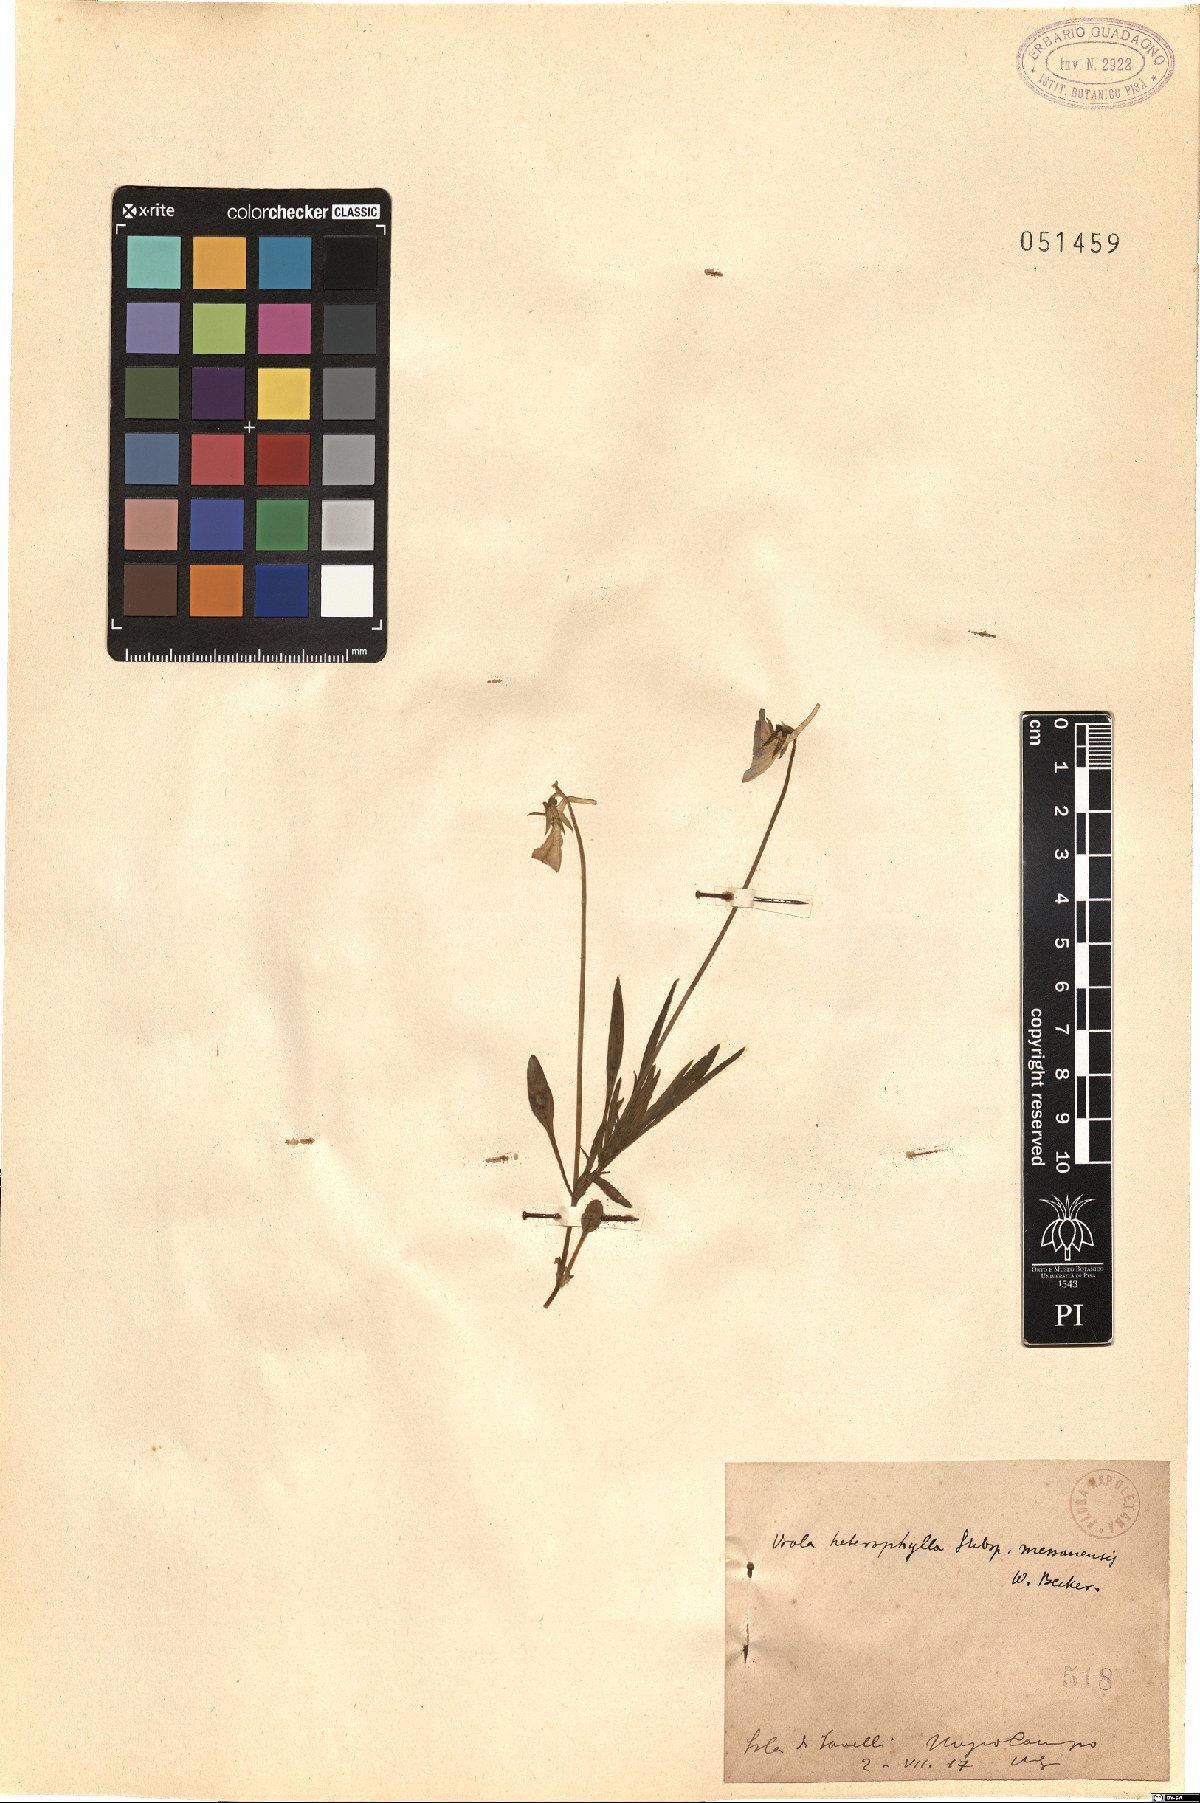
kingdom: Plantae
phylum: Tracheophyta
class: Magnoliopsida
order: Malpighiales
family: Violaceae
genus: Viola
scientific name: Viola aethnensis
